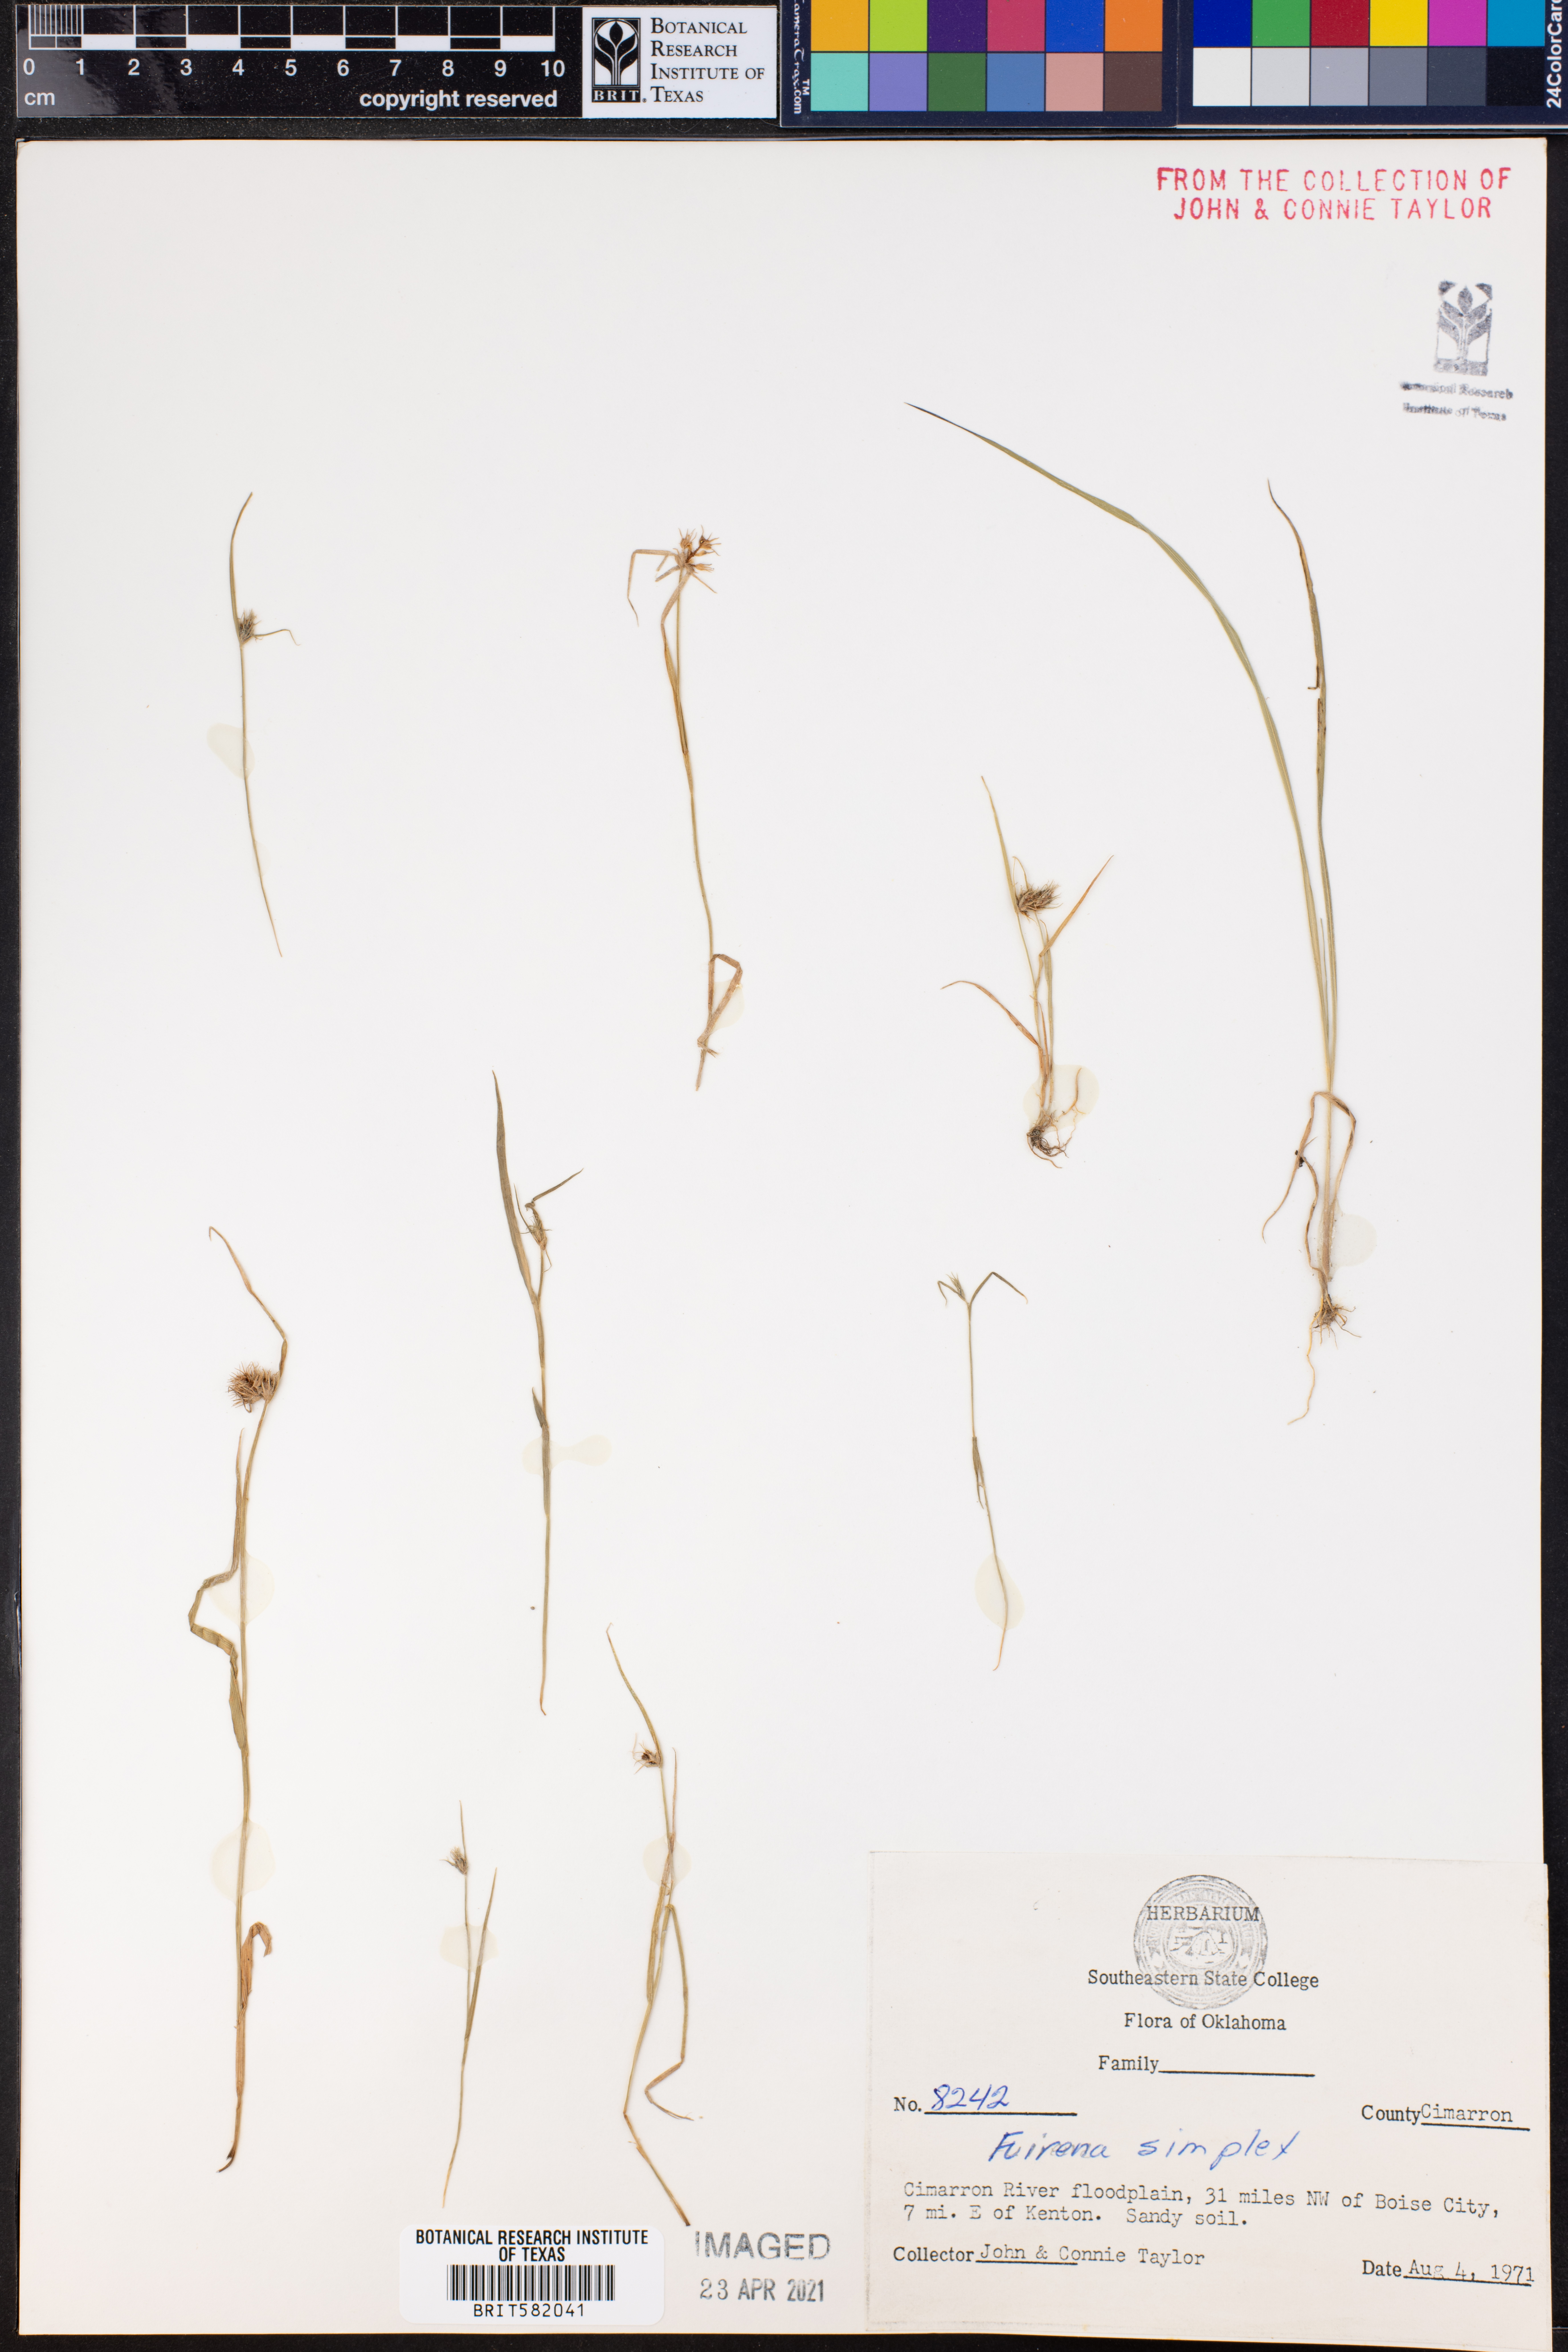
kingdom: Plantae
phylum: Tracheophyta
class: Liliopsida
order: Poales
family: Cyperaceae
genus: Fuirena
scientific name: Fuirena simplex
